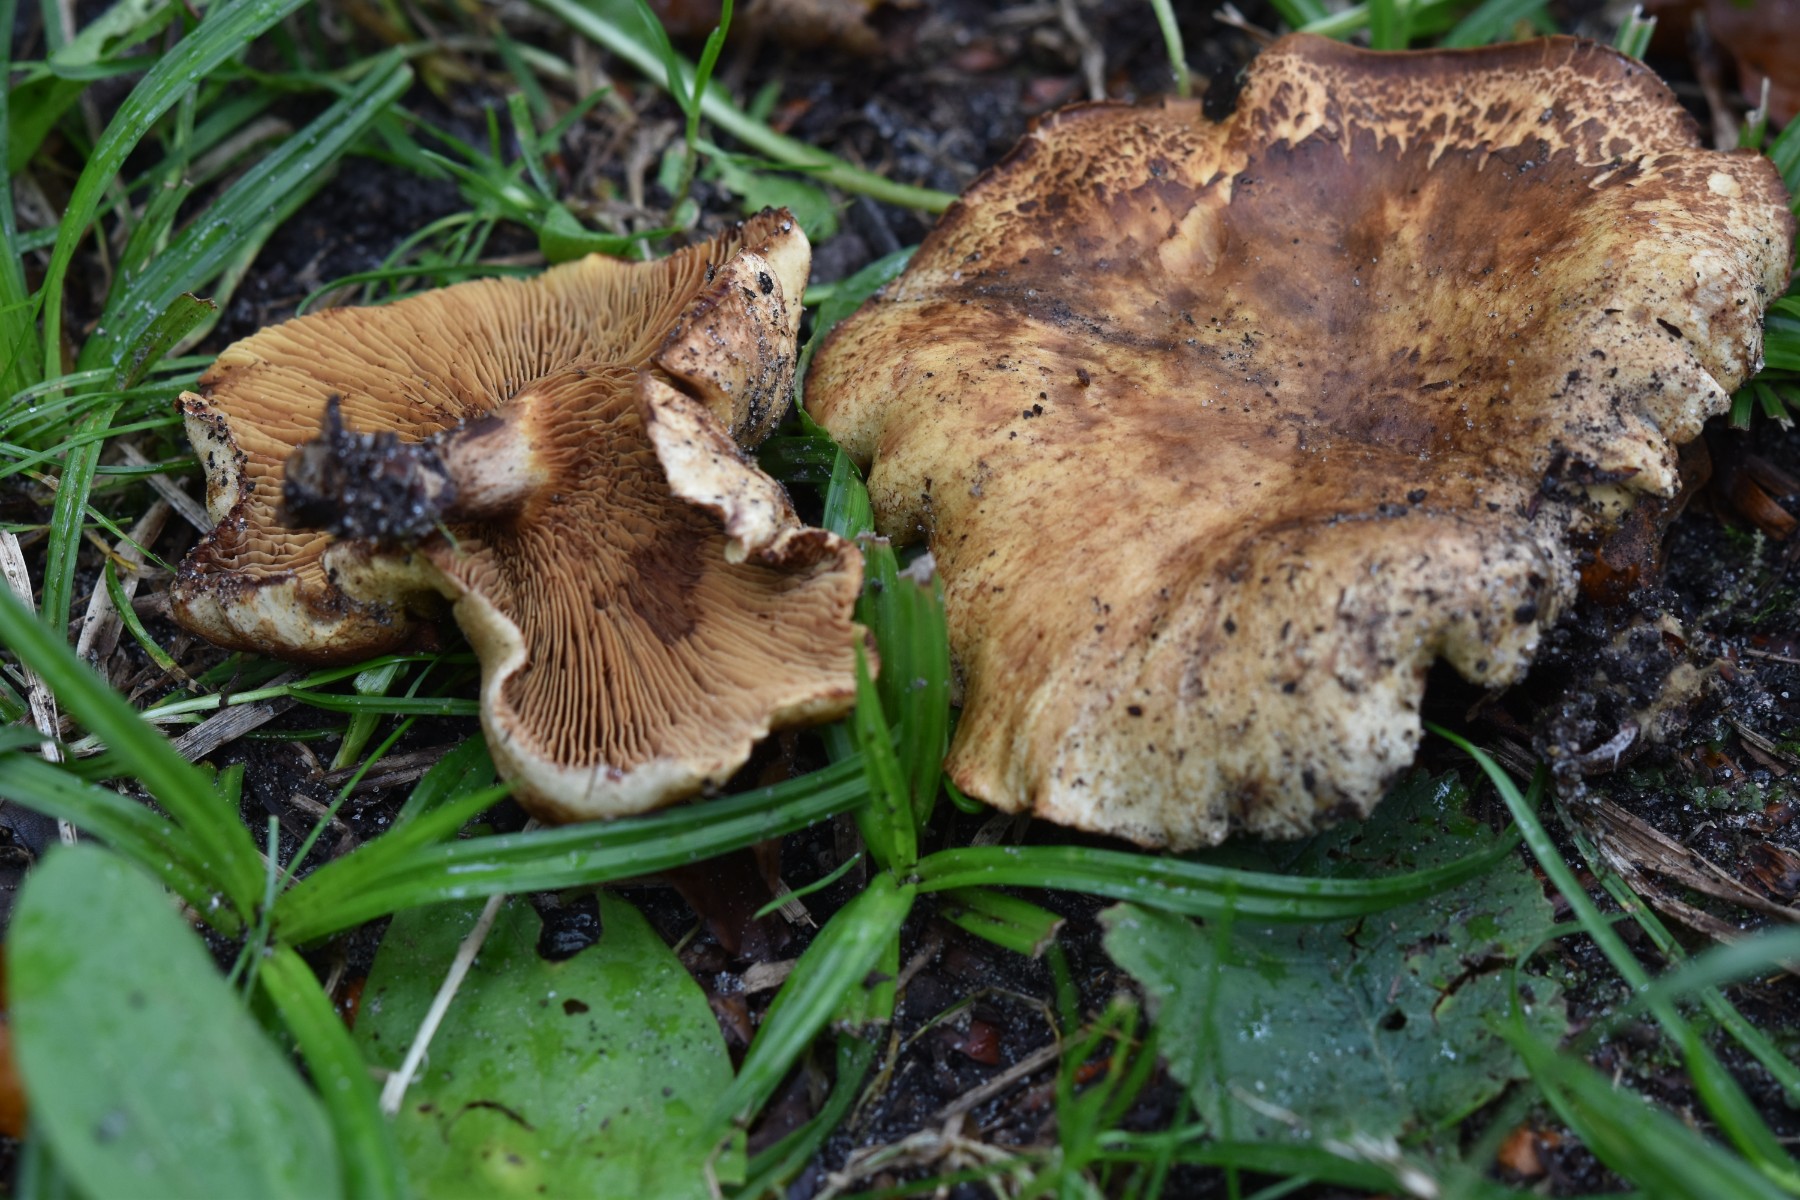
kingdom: Fungi
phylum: Basidiomycota
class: Agaricomycetes
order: Boletales
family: Paxillaceae
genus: Paxillus
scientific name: Paxillus rubicundulus
